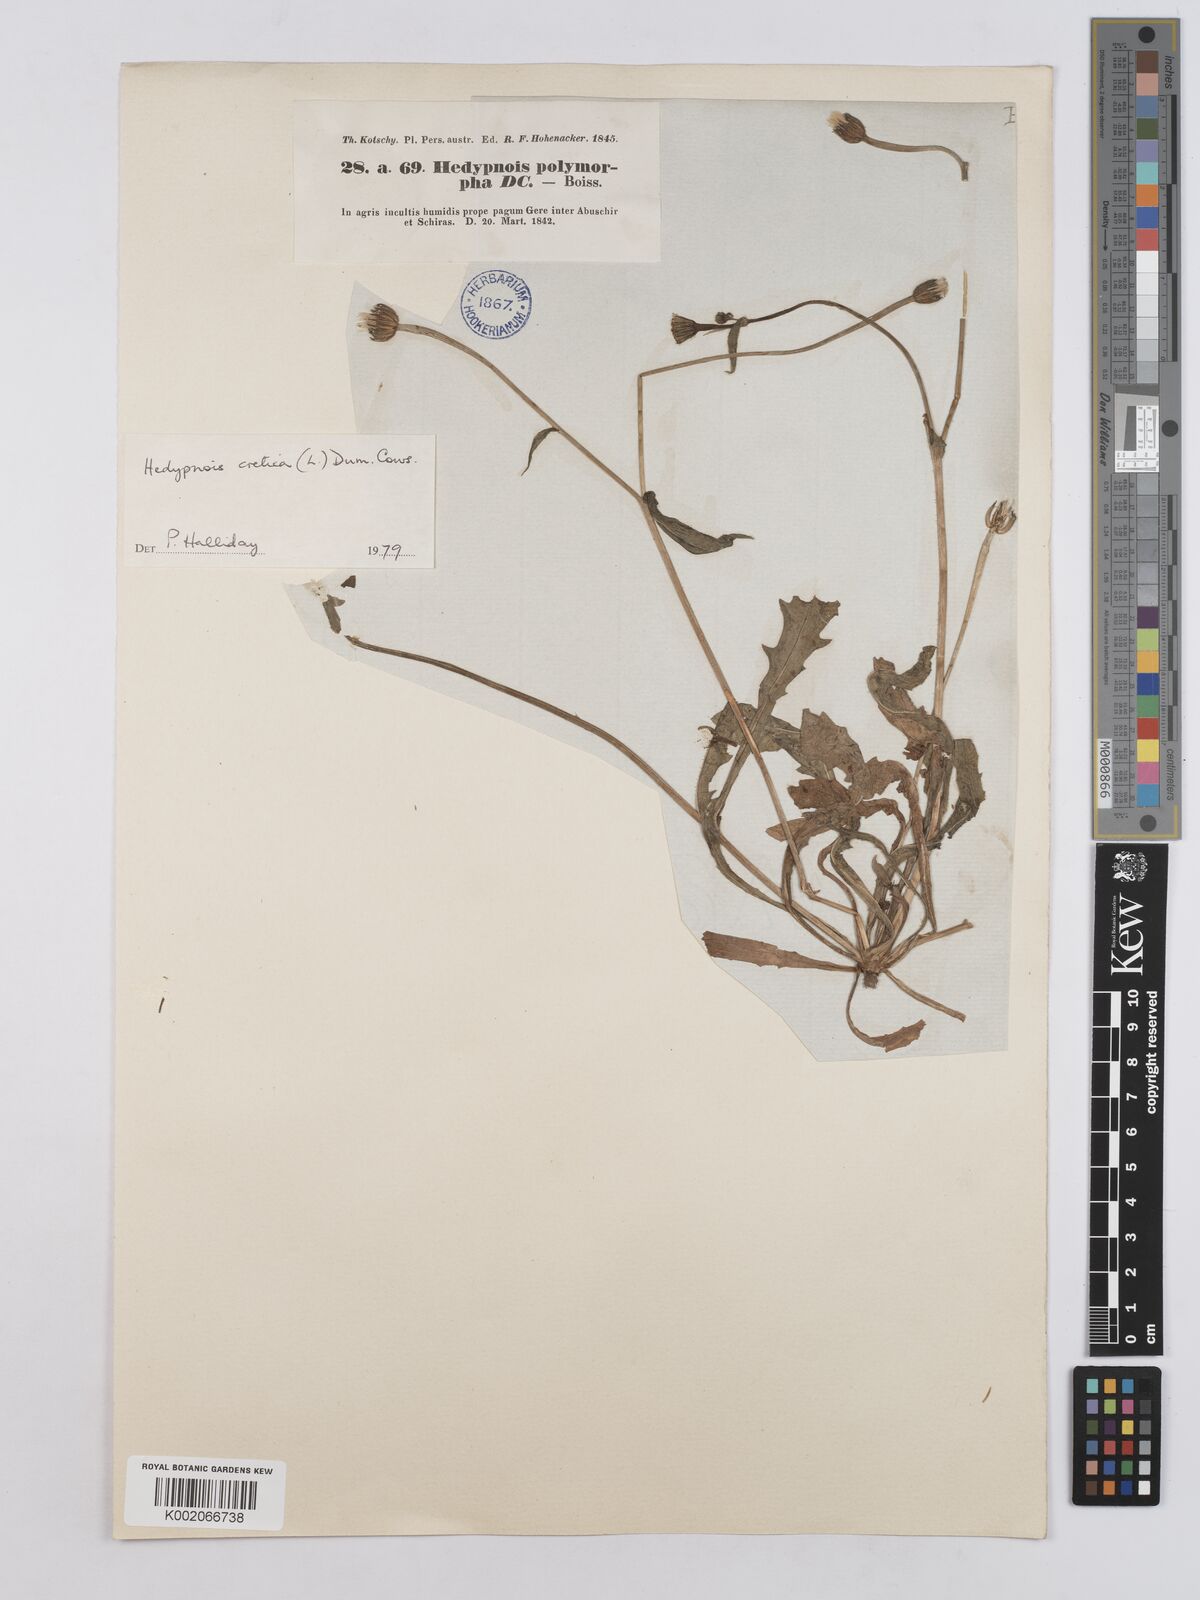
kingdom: Plantae
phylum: Tracheophyta
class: Magnoliopsida
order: Asterales
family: Asteraceae
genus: Hedypnois
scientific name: Hedypnois cretica
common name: Scaly hawkbit
